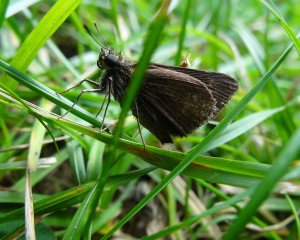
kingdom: Animalia
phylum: Arthropoda
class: Insecta
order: Lepidoptera
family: Hesperiidae
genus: Euphyes
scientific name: Euphyes vestris
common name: Dun Skipper
